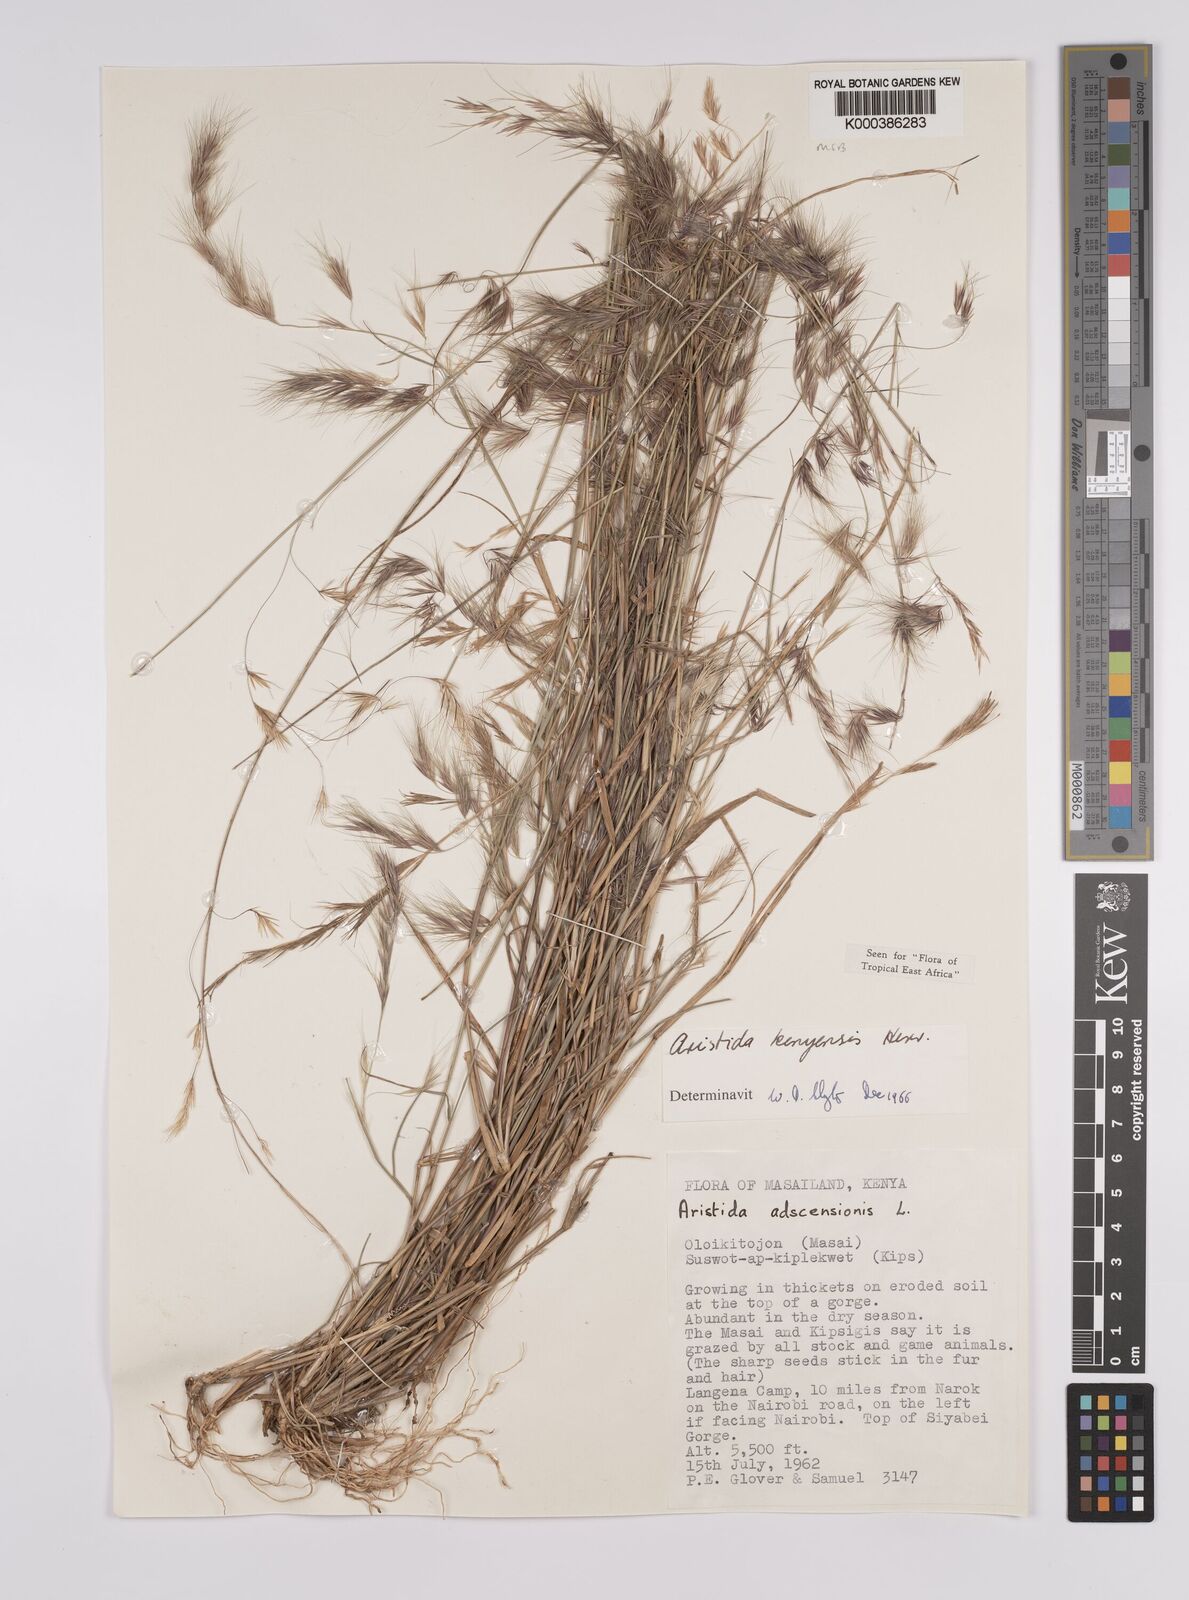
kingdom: Plantae
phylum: Tracheophyta
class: Liliopsida
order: Poales
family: Poaceae
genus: Aristida
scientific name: Aristida kenyensis
